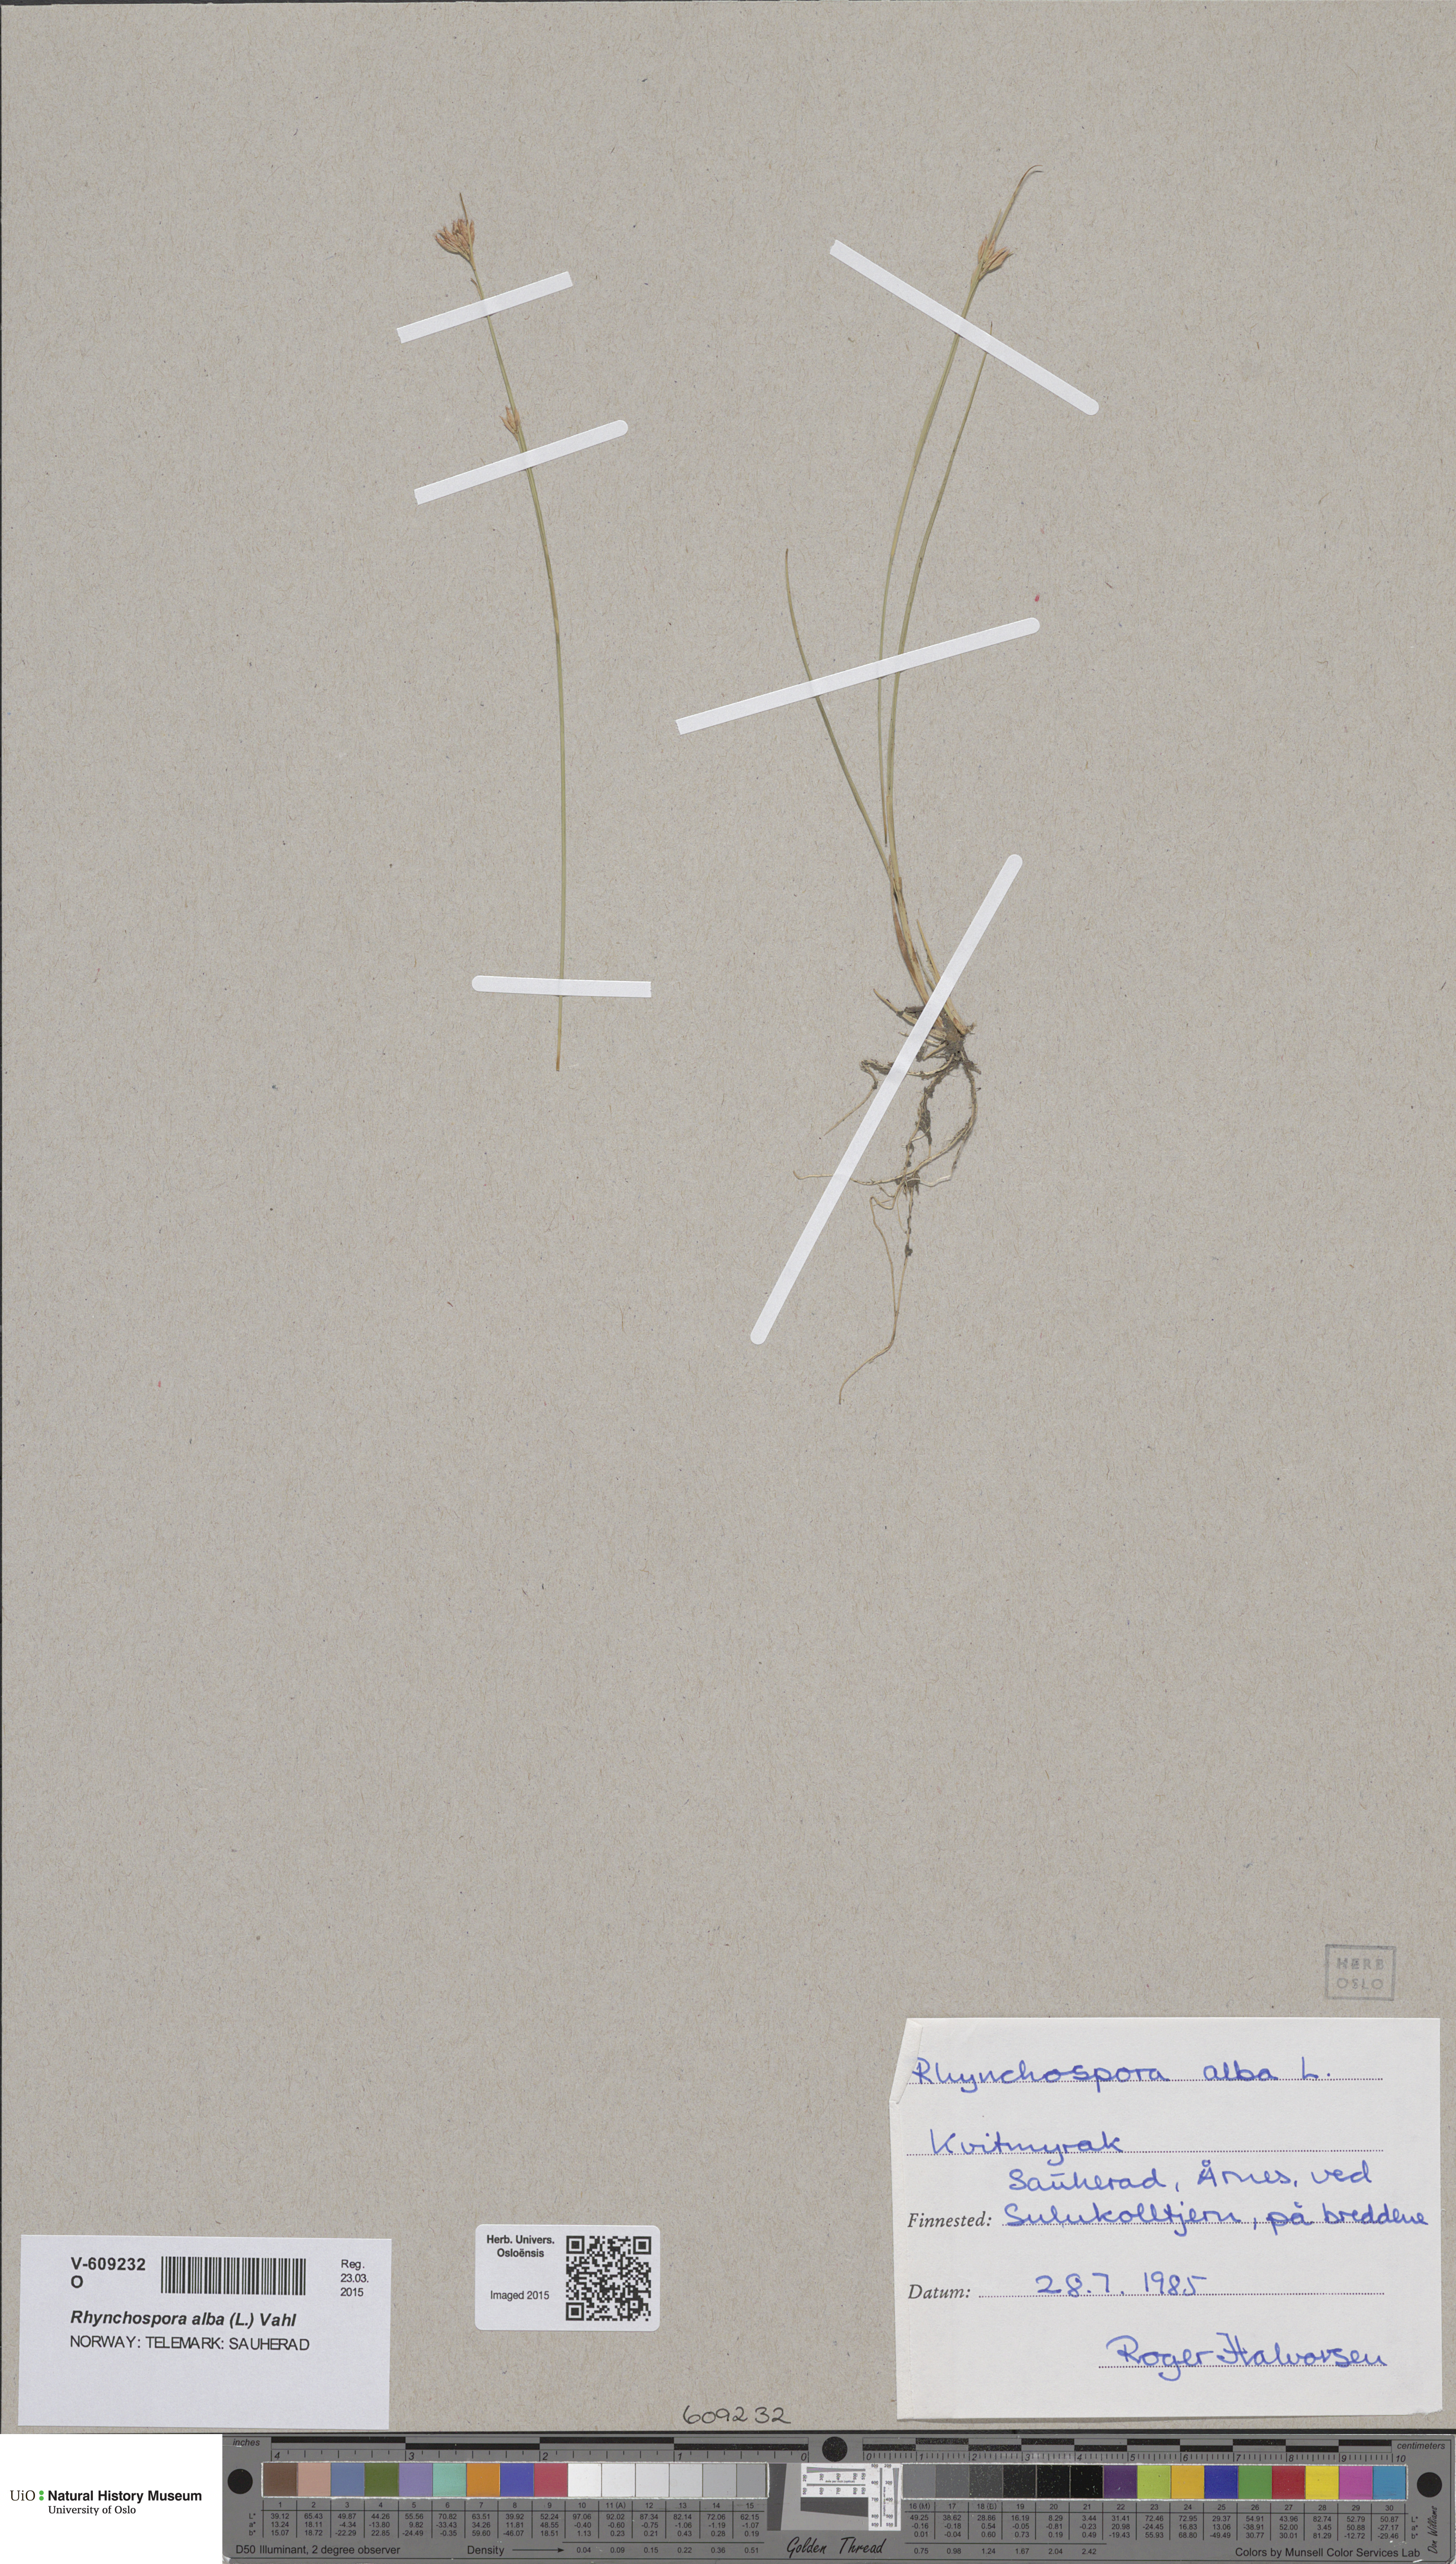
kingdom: Plantae
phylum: Tracheophyta
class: Liliopsida
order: Poales
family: Cyperaceae
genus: Rhynchospora
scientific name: Rhynchospora alba
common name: White beak-sedge
